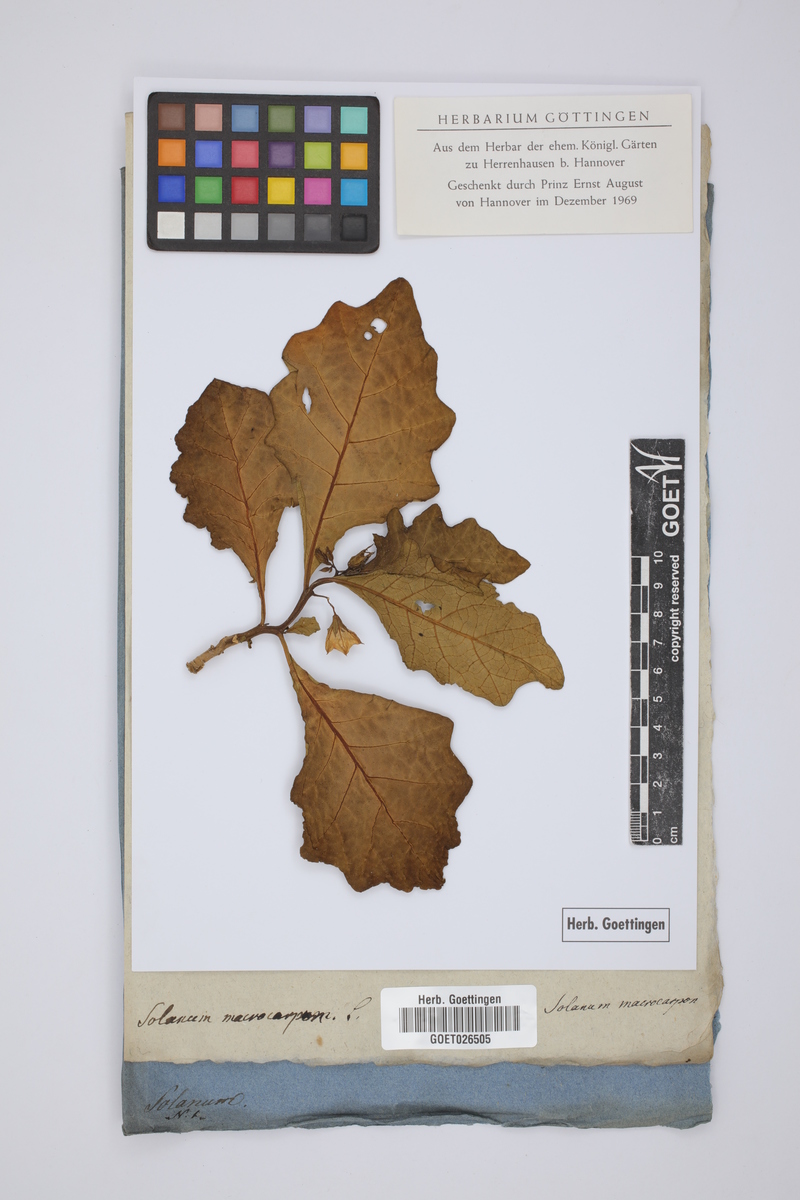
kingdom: Plantae
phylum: Tracheophyta
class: Magnoliopsida
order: Solanales
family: Solanaceae
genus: Solanum
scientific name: Solanum macrocarpon
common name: African eggplant
